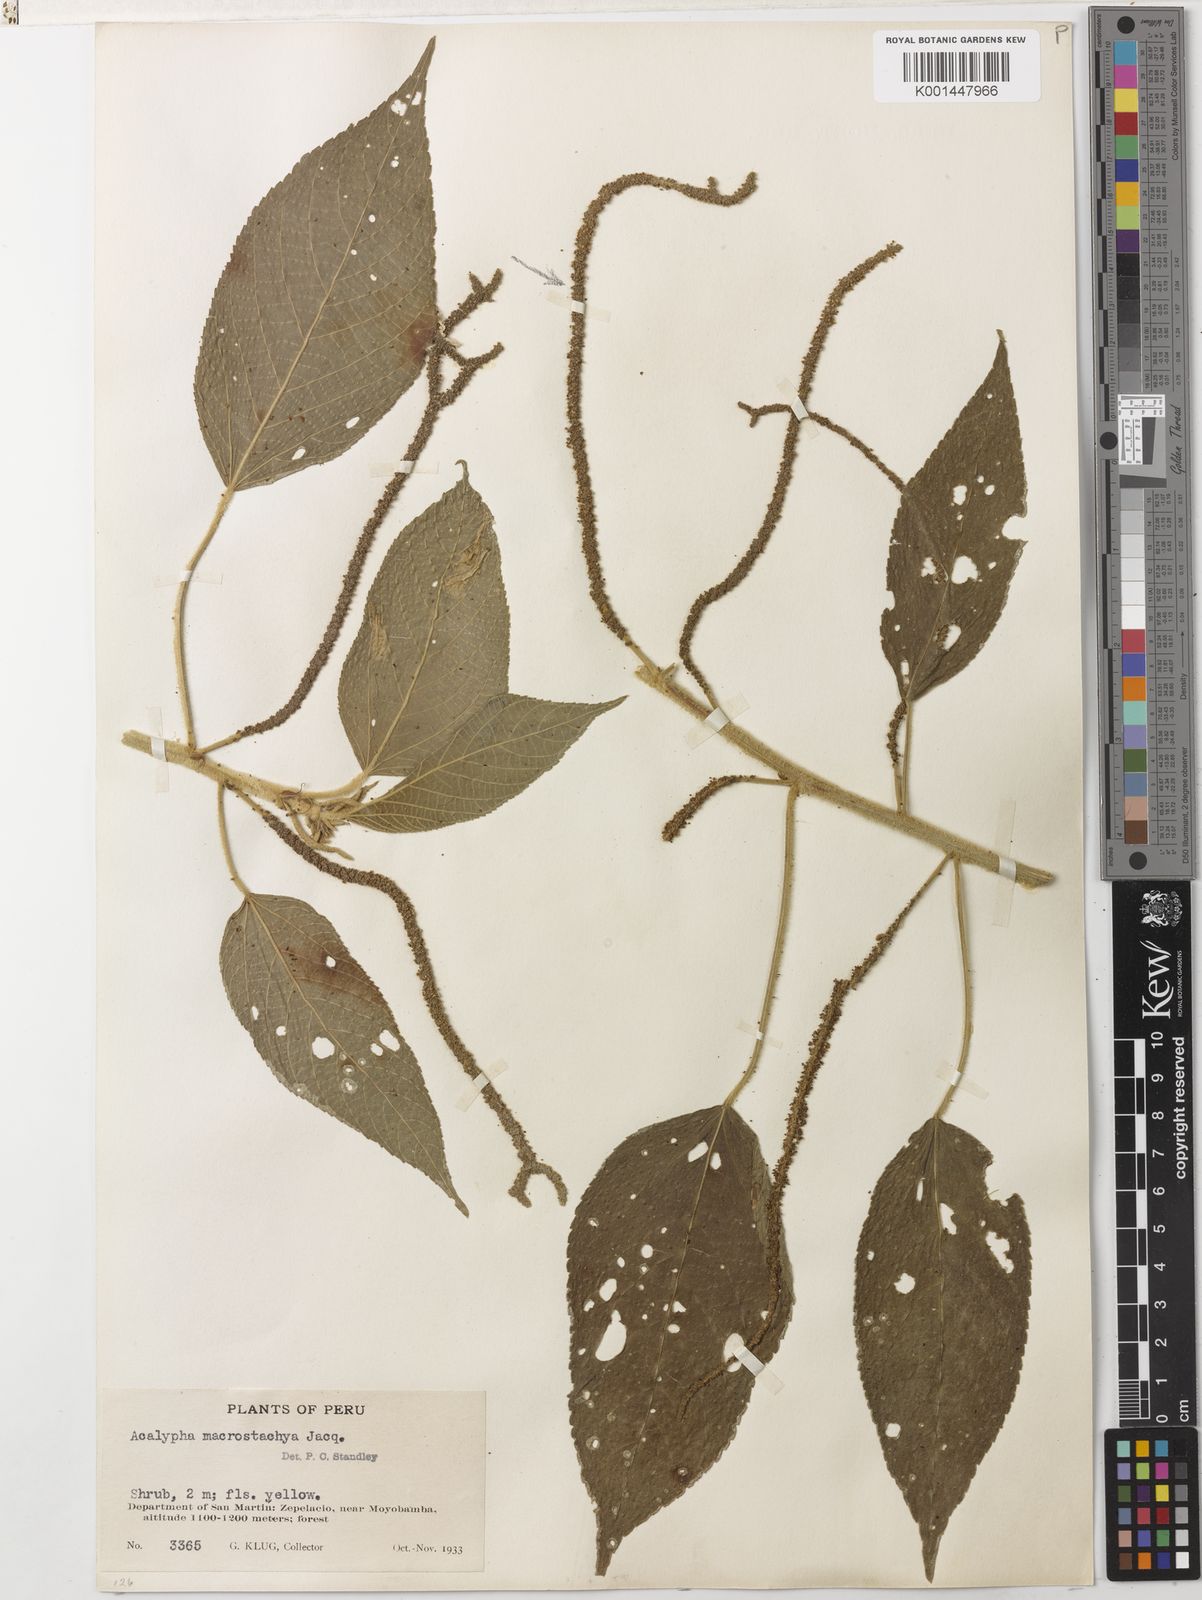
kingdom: Plantae
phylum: Tracheophyta
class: Magnoliopsida
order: Malpighiales
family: Euphorbiaceae
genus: Acalypha
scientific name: Acalypha macrostachya
